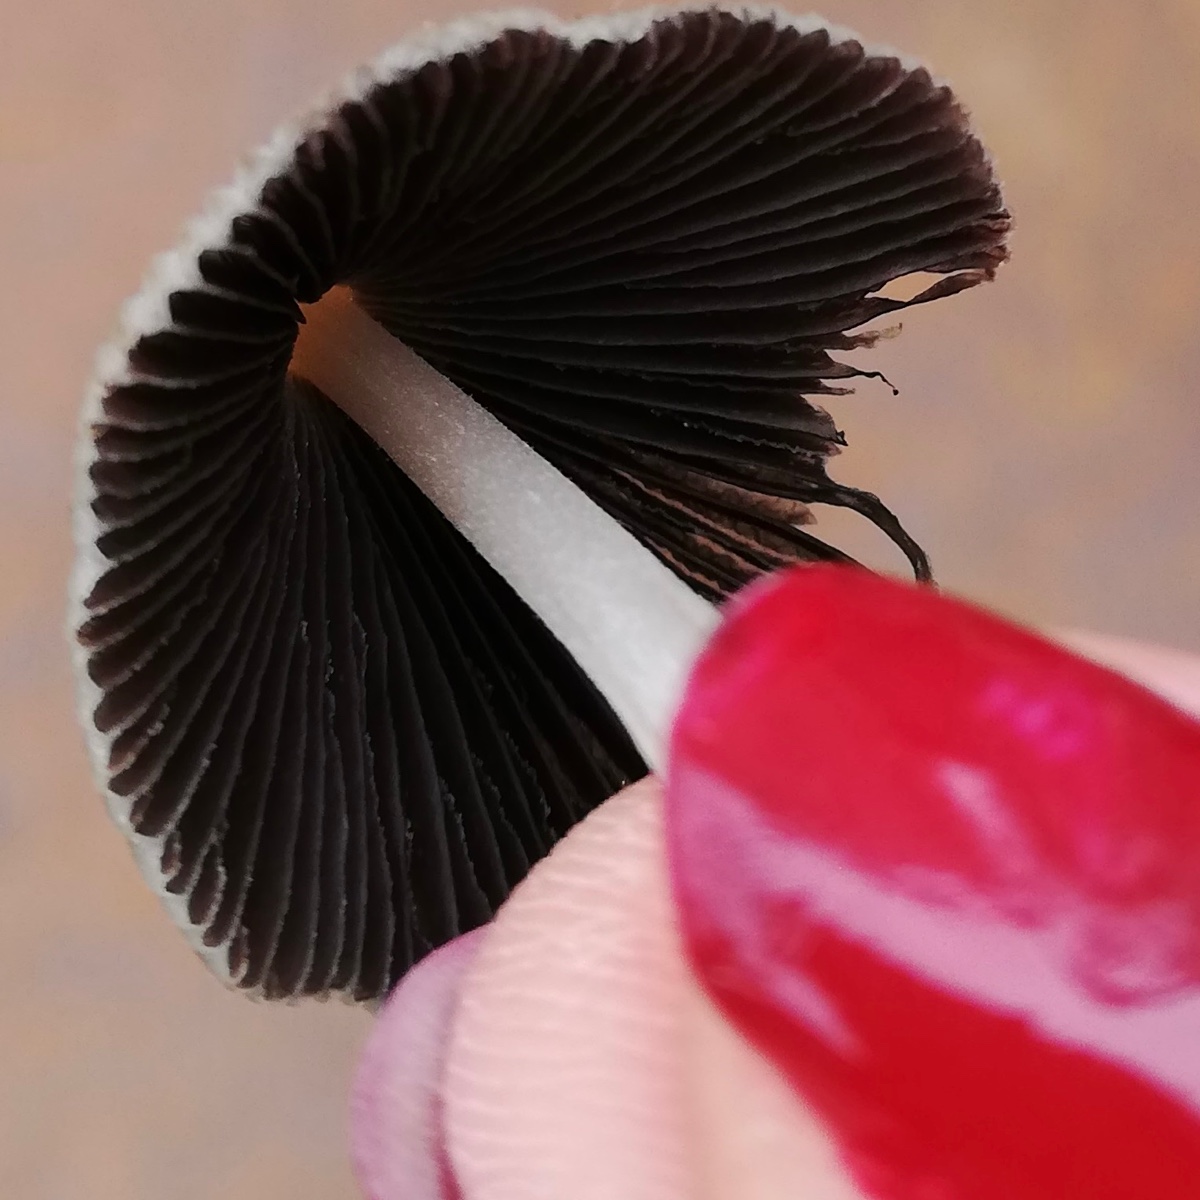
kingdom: Fungi
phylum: Basidiomycota
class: Agaricomycetes
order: Agaricales
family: Psathyrellaceae
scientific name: Psathyrellaceae
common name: mørkhatfamilien
